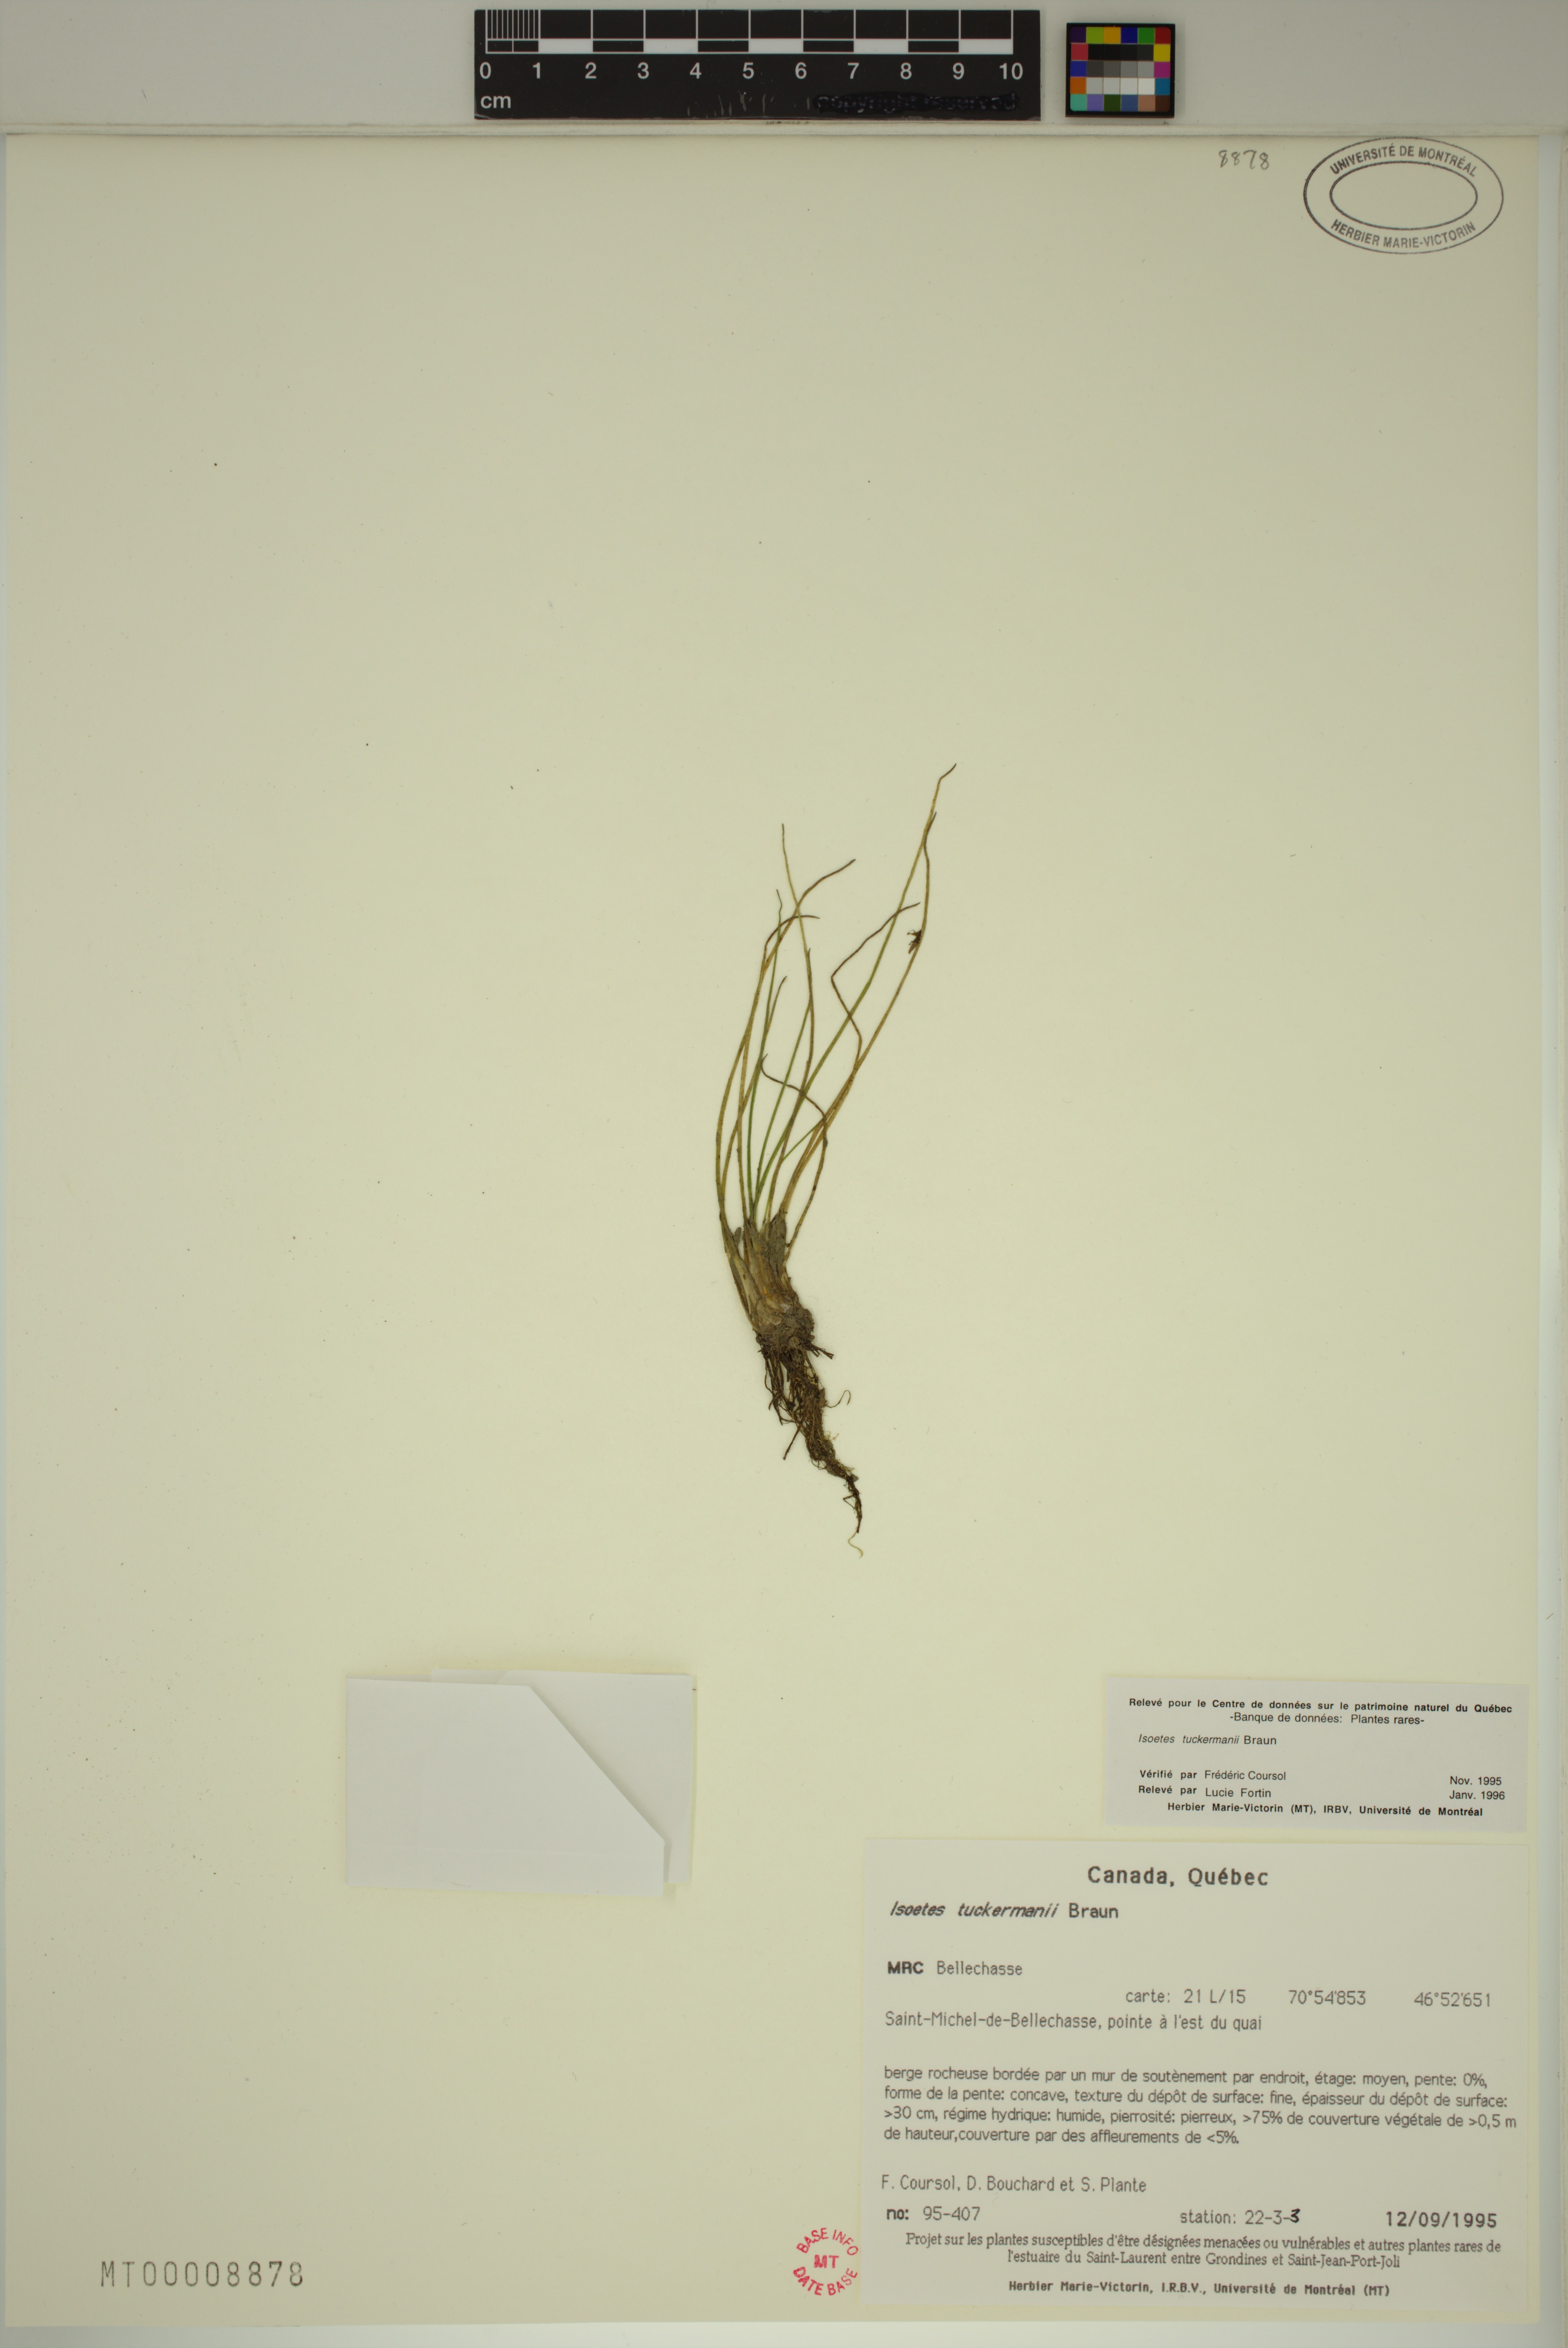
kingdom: Plantae
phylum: Tracheophyta
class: Lycopodiopsida
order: Isoetales
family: Isoetaceae
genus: Isoetes
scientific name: Isoetes laurentiana
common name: St. lawrence quillwort
